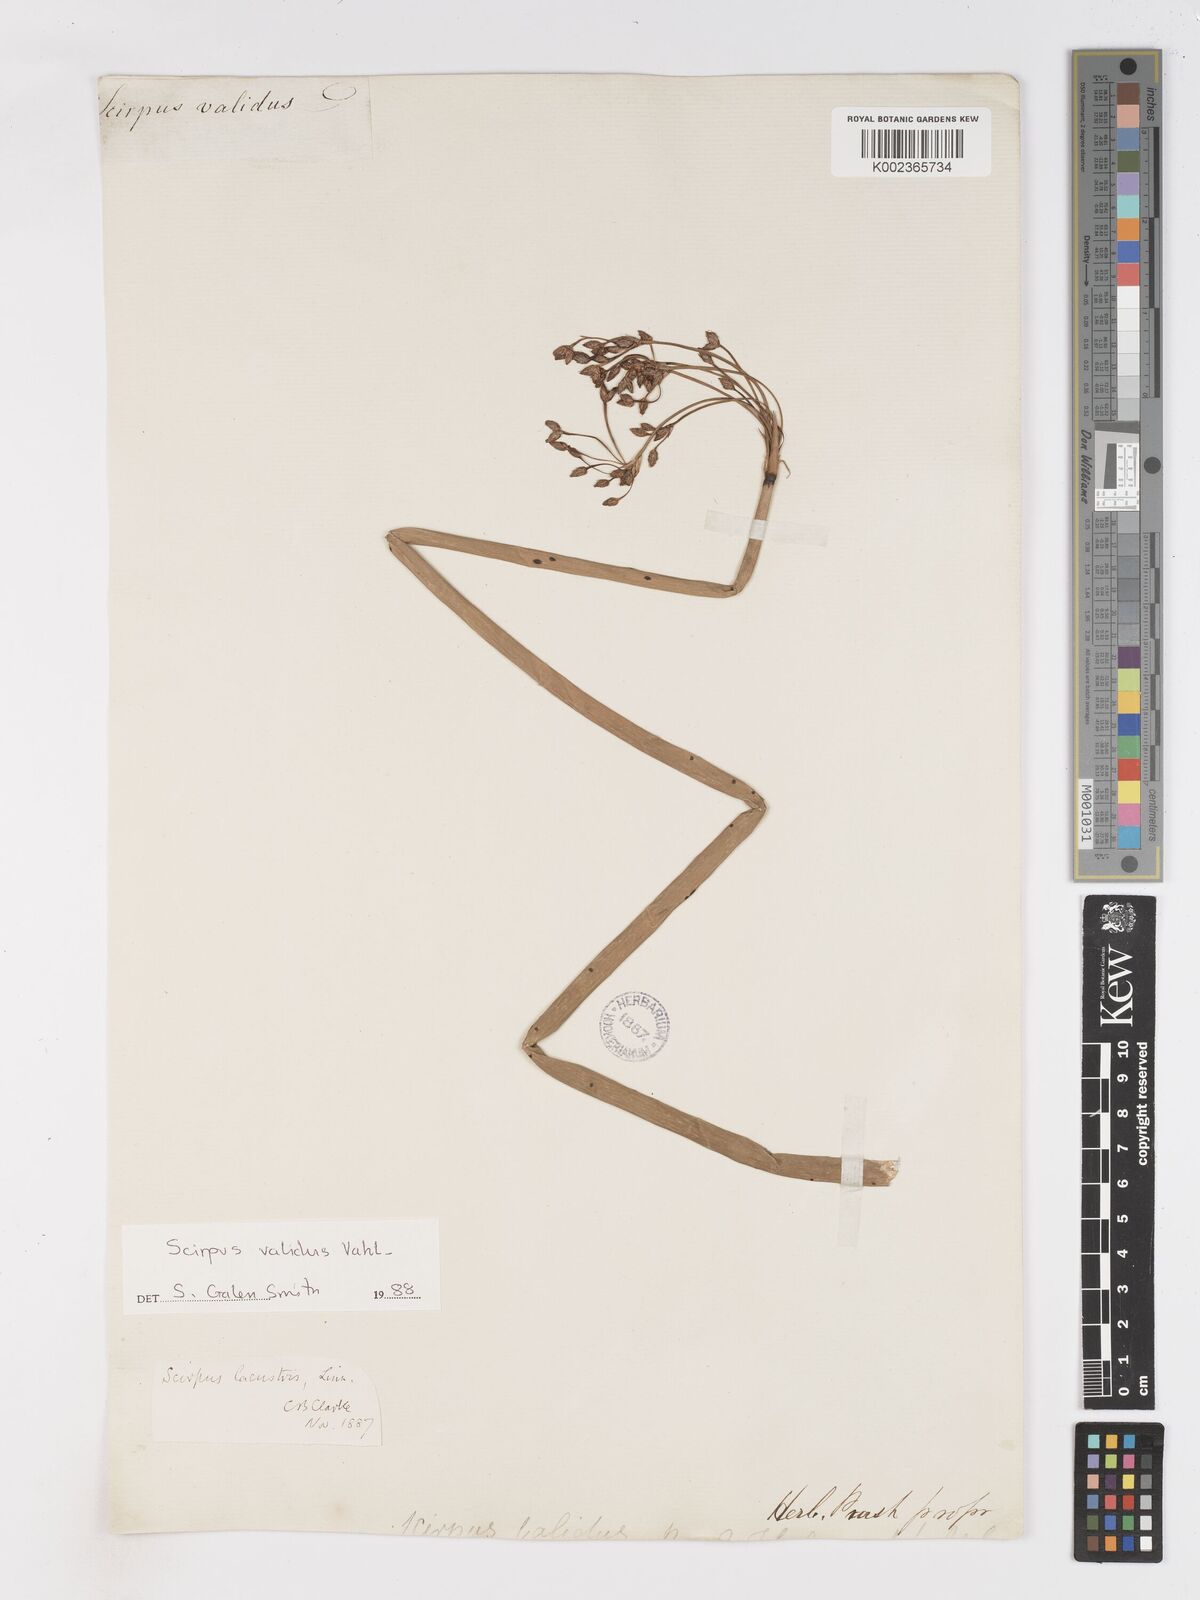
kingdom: Plantae
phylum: Tracheophyta
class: Liliopsida
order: Poales
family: Cyperaceae
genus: Schoenoplectus
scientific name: Schoenoplectus lacustris
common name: Common club-rush
